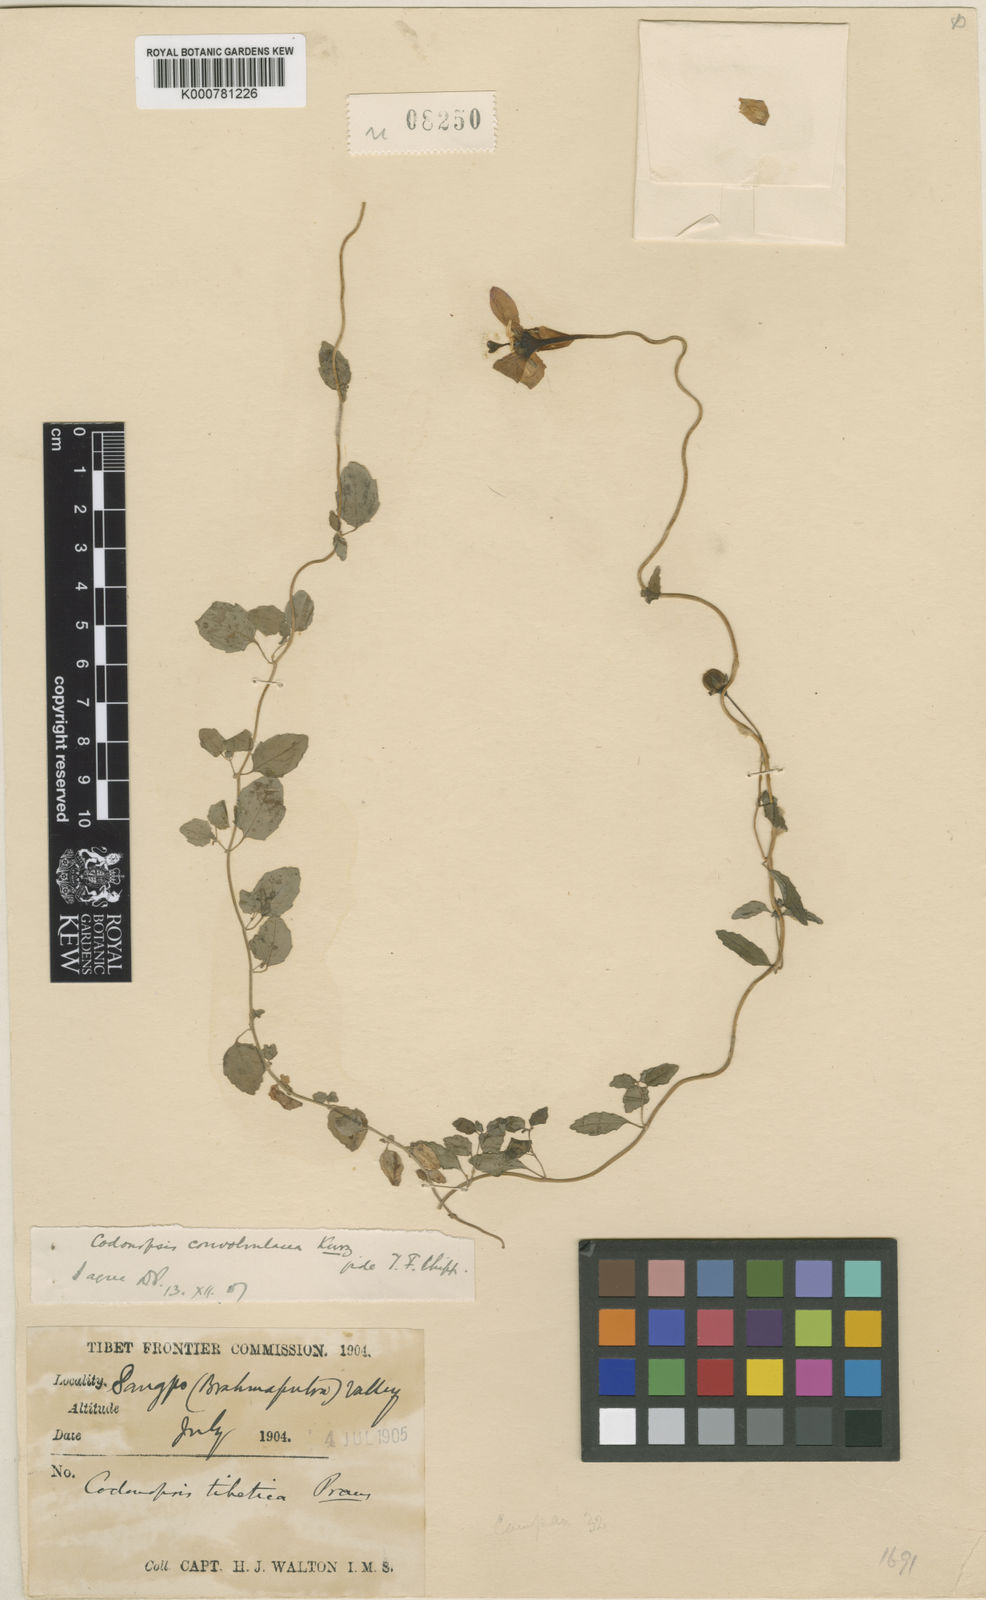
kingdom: Plantae
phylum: Tracheophyta
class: Magnoliopsida
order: Asterales
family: Campanulaceae
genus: Pseudocodon
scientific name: Pseudocodon vinciflorus
